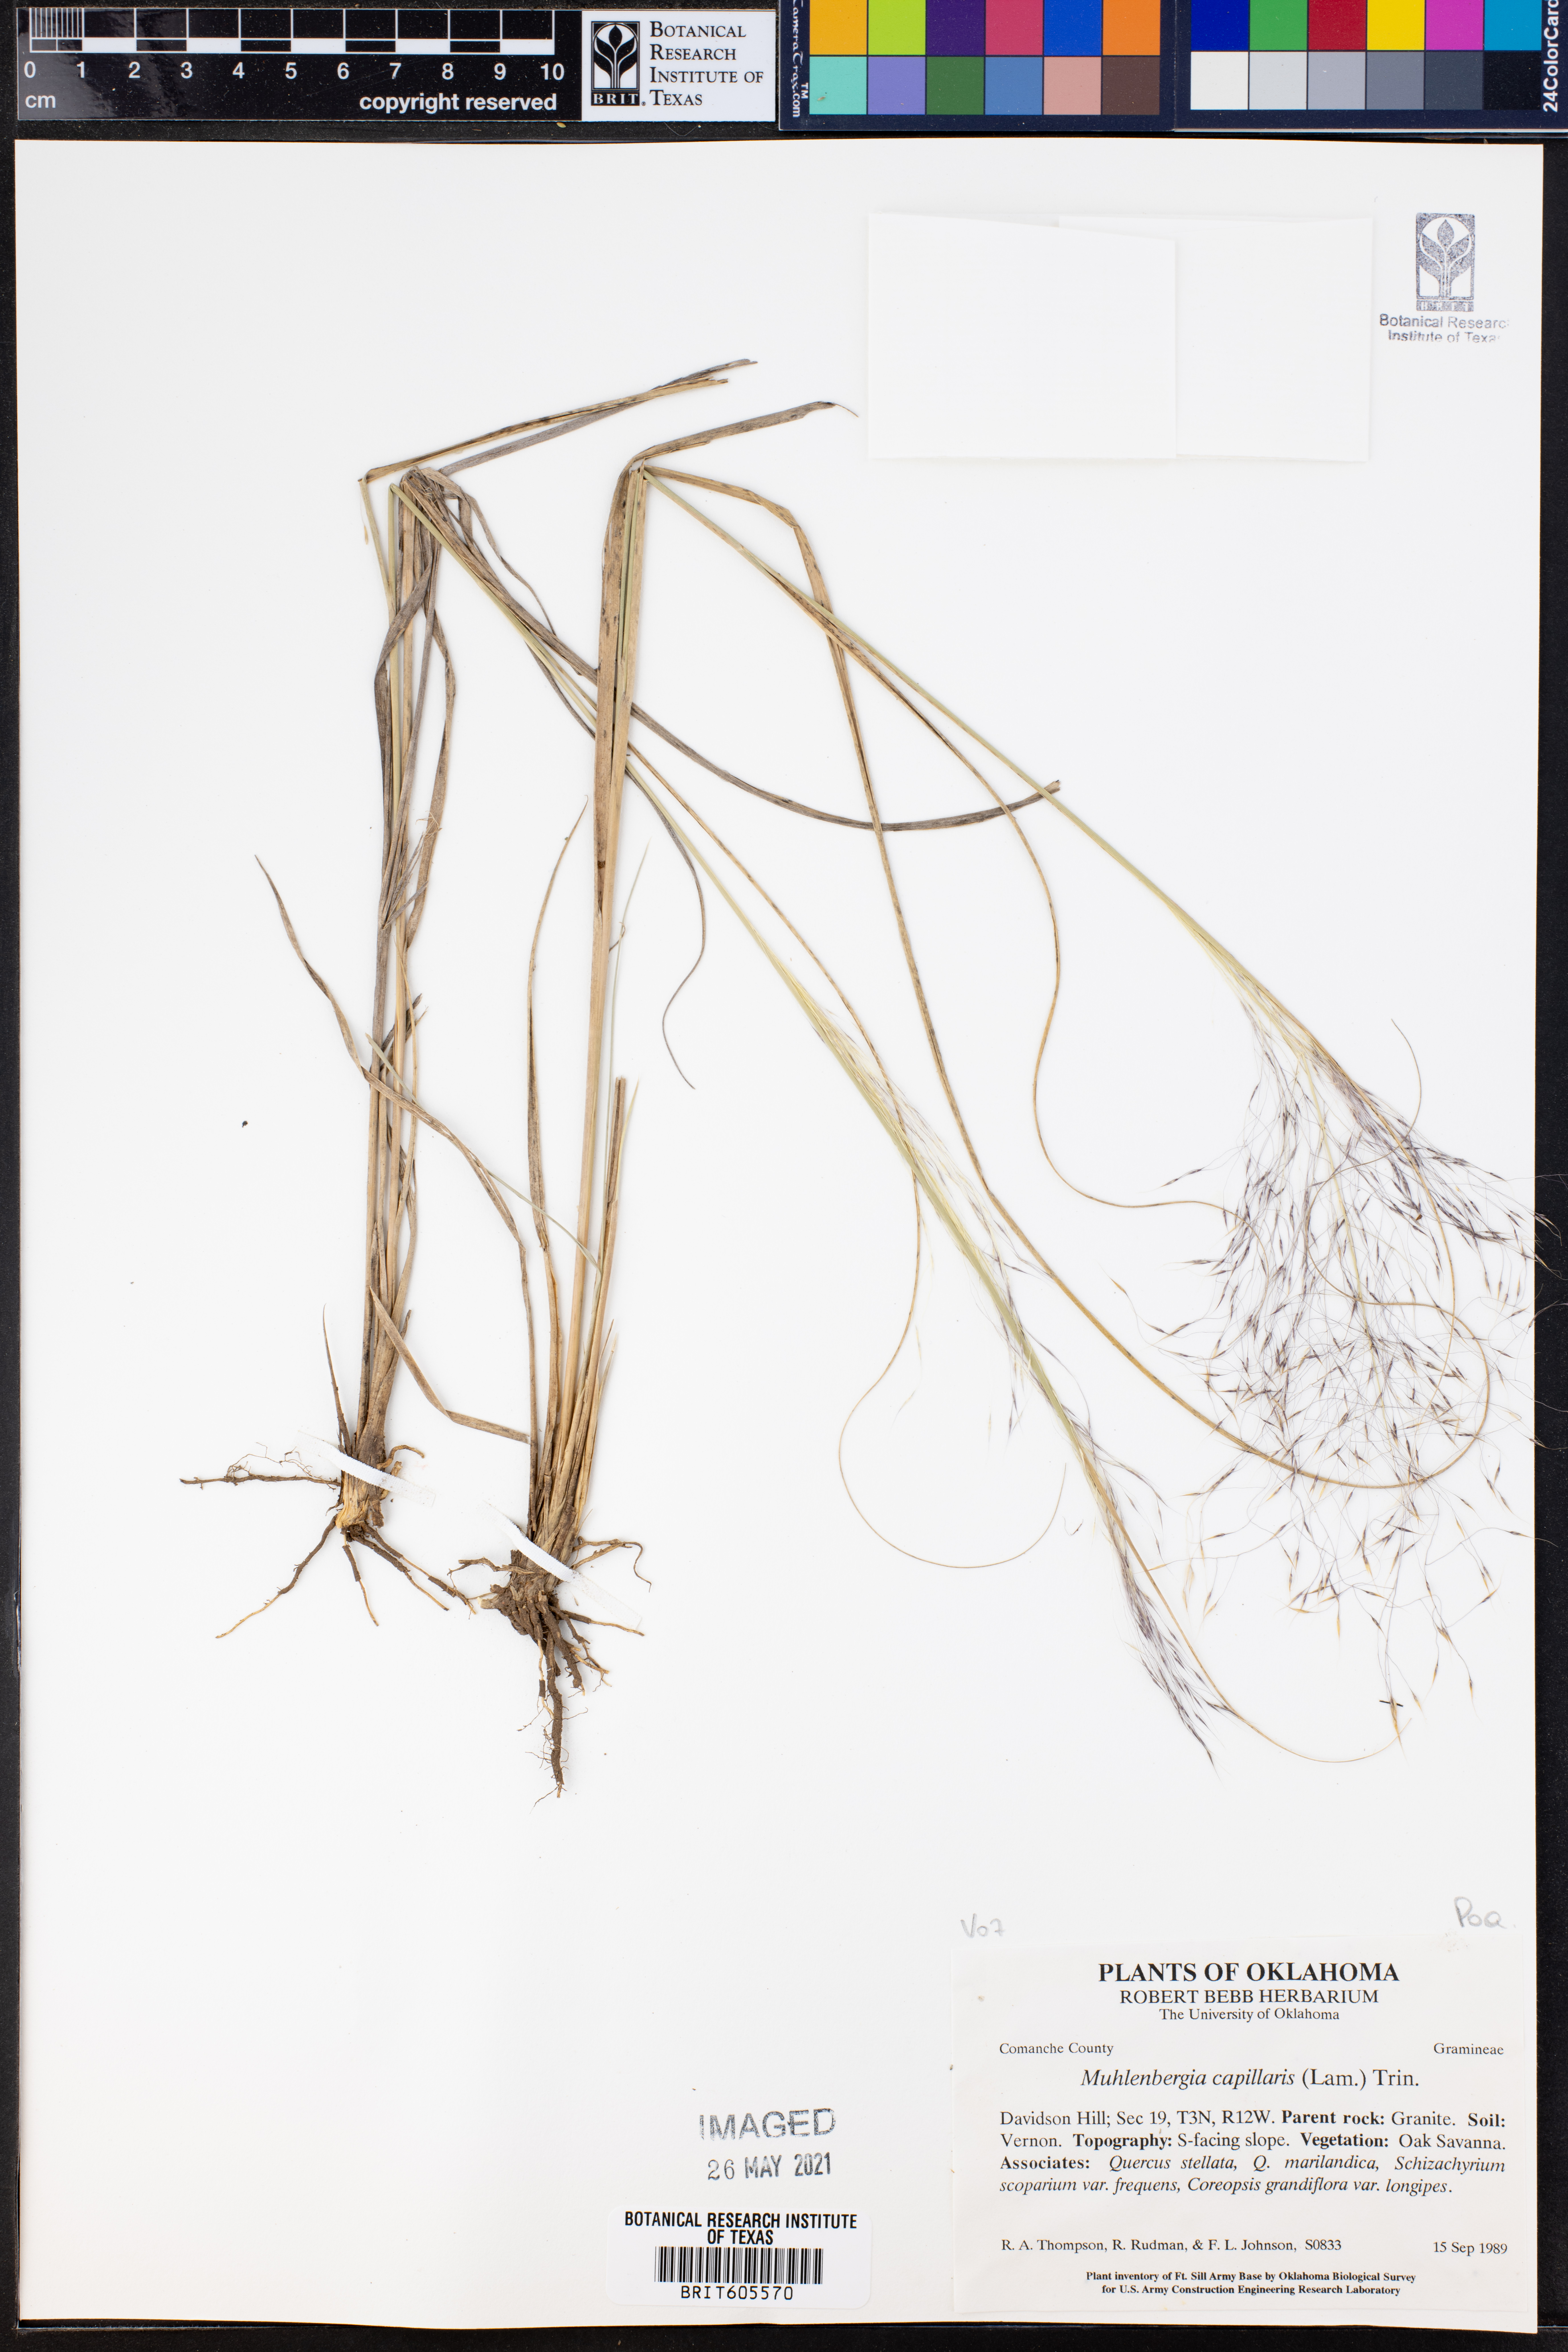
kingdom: Plantae
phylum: Tracheophyta
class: Liliopsida
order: Poales
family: Poaceae
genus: Muhlenbergia
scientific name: Muhlenbergia capillaris
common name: Purple grass
